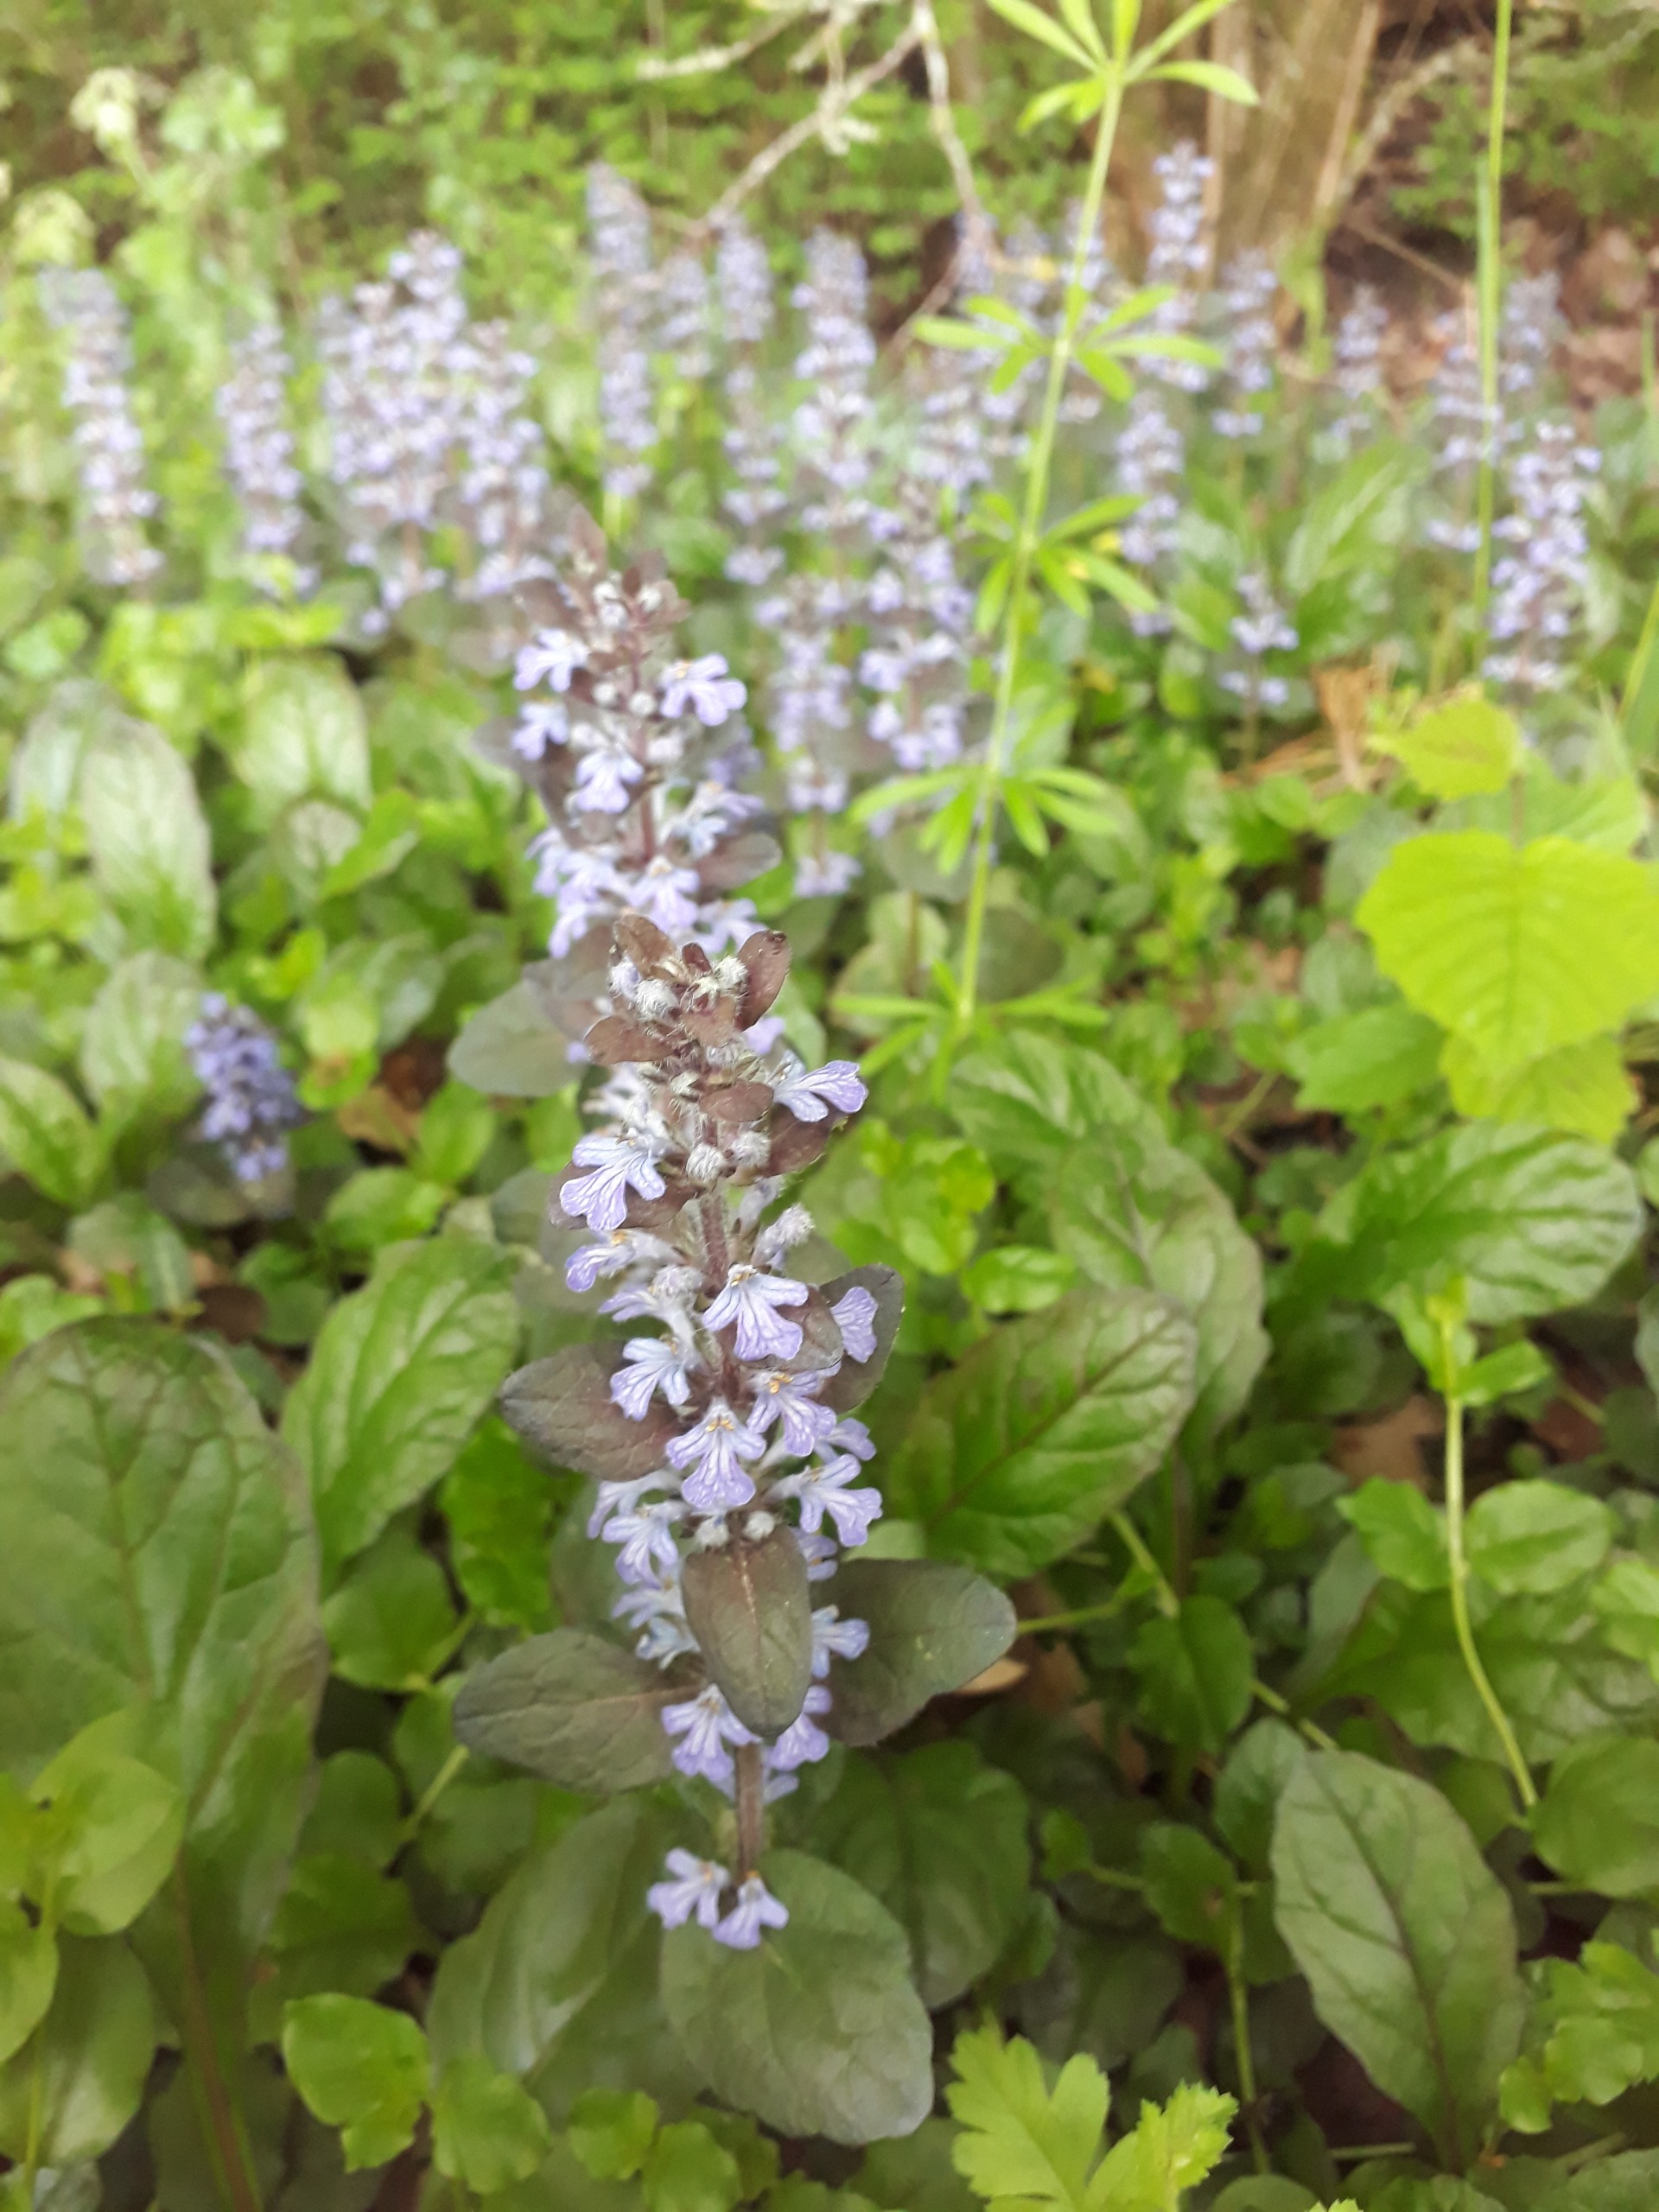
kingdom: Plantae
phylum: Tracheophyta
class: Magnoliopsida
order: Lamiales
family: Lamiaceae
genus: Ajuga
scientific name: Ajuga reptans
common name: Krybende læbeløs
